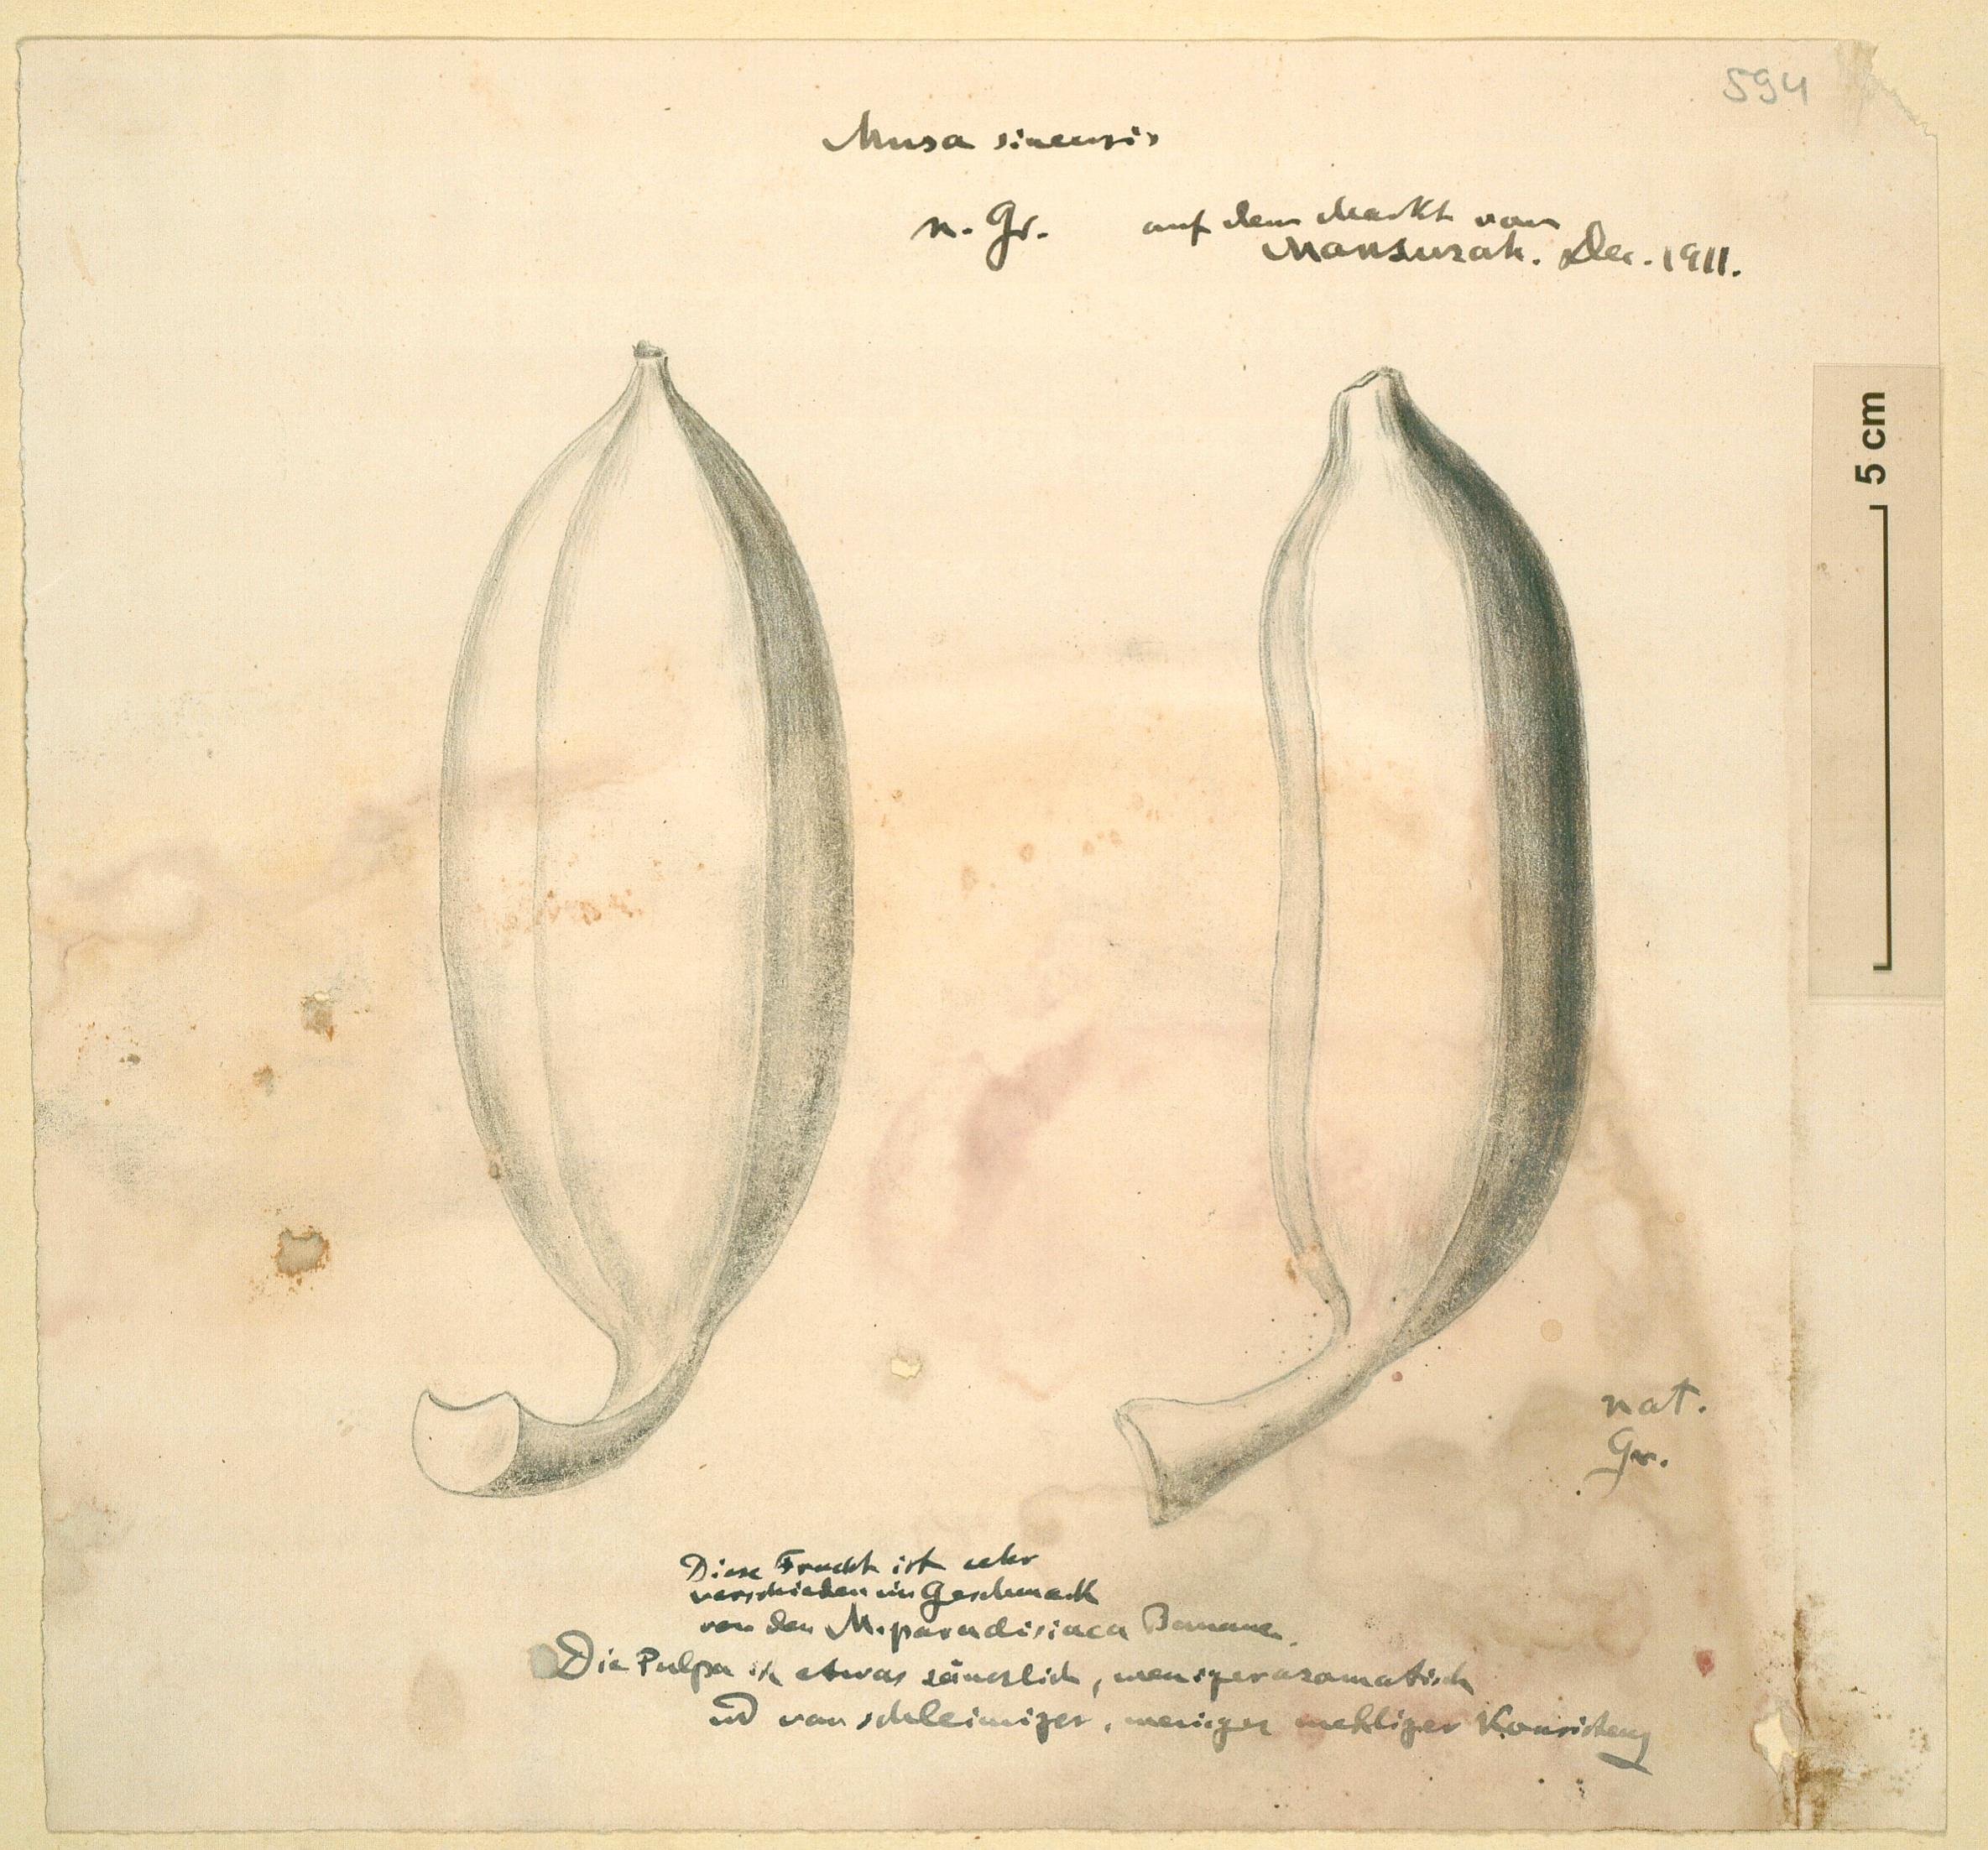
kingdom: Plantae
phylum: Tracheophyta
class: Liliopsida
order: Zingiberales
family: Musaceae
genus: Musa
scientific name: Musa acuminata
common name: Edible banana
